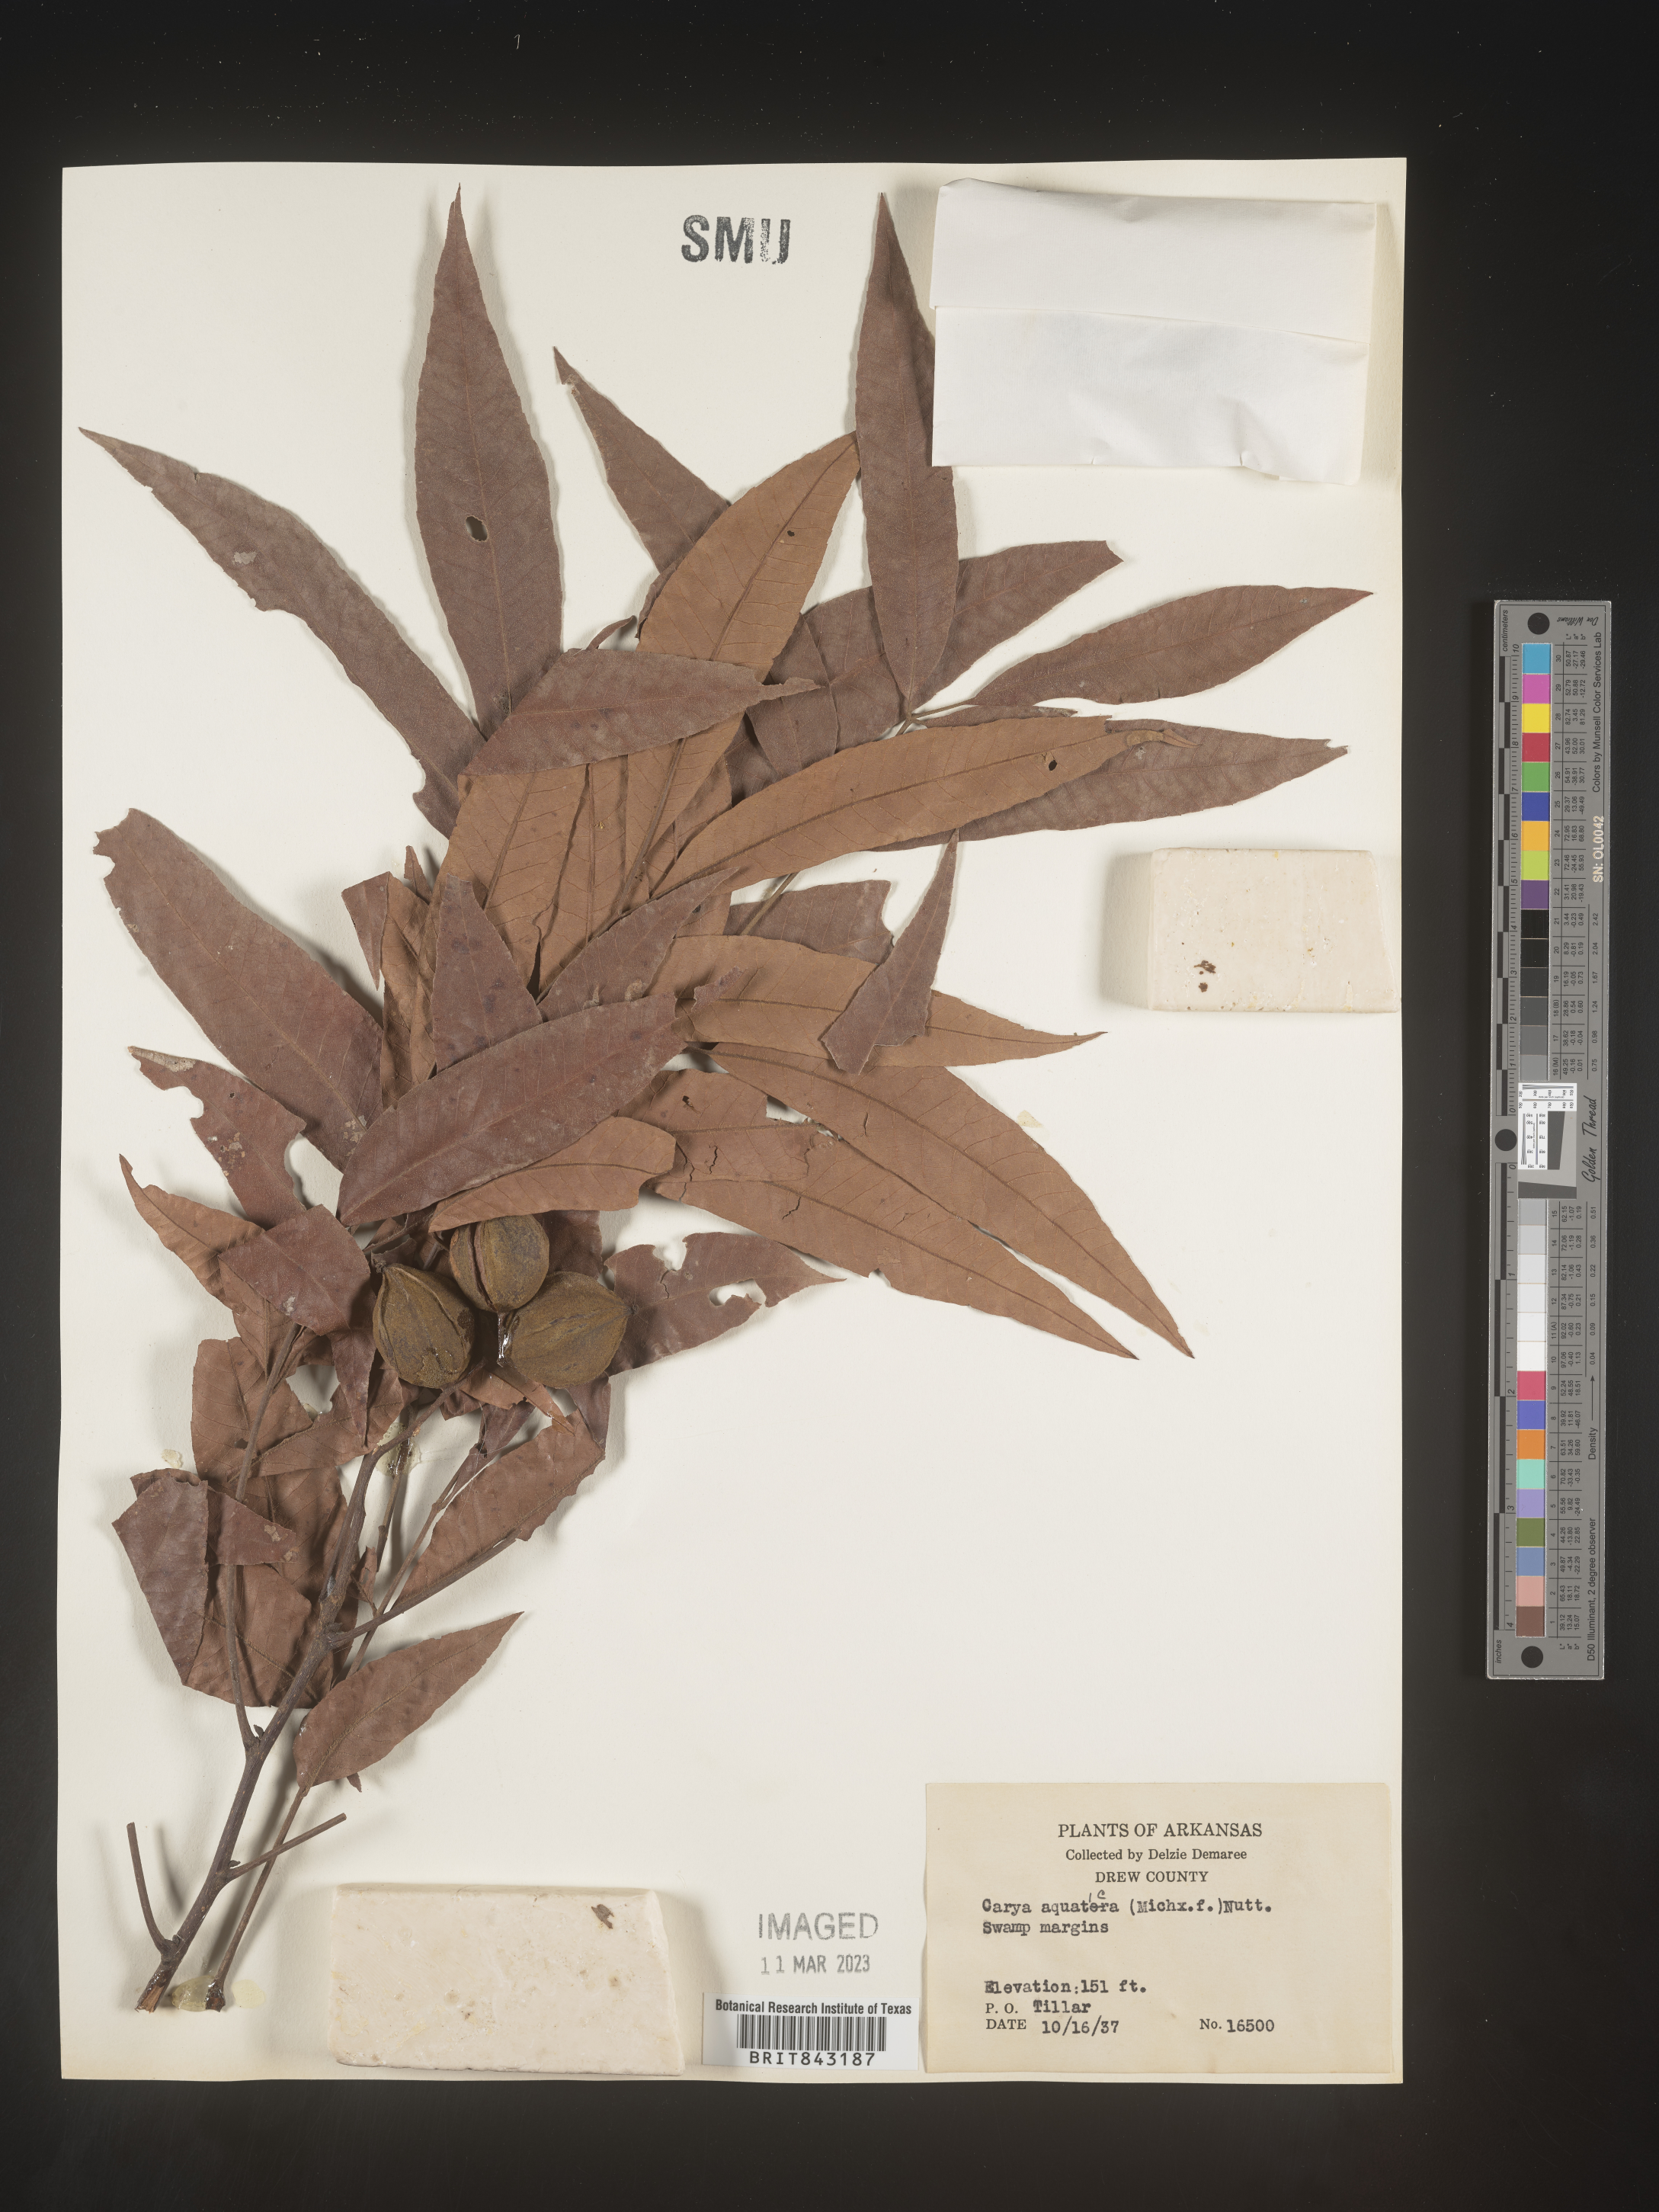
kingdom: Plantae
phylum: Tracheophyta
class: Magnoliopsida
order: Fagales
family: Juglandaceae
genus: Carya
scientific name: Carya aquatica
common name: Water hickory
